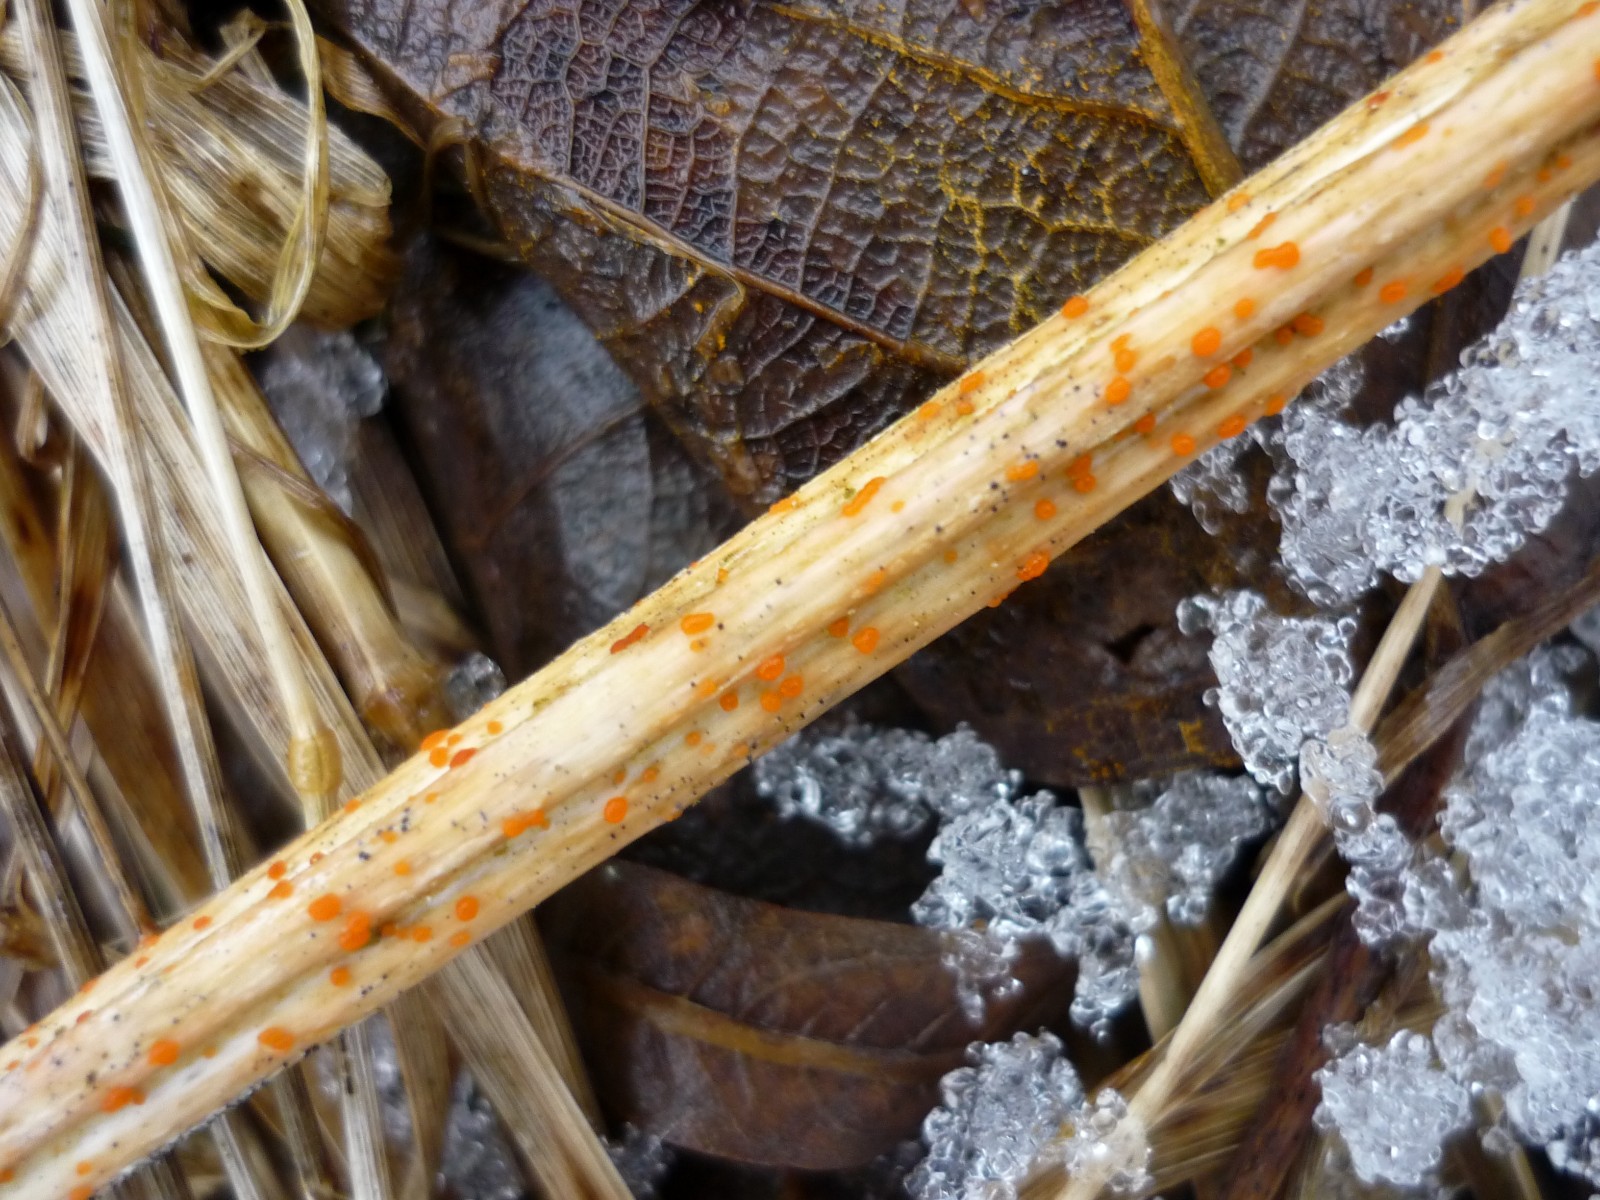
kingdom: Fungi
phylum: Ascomycota
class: Leotiomycetes
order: Helotiales
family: Calloriaceae
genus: Calloria
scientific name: Calloria urticae
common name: nælde-orangeskive
